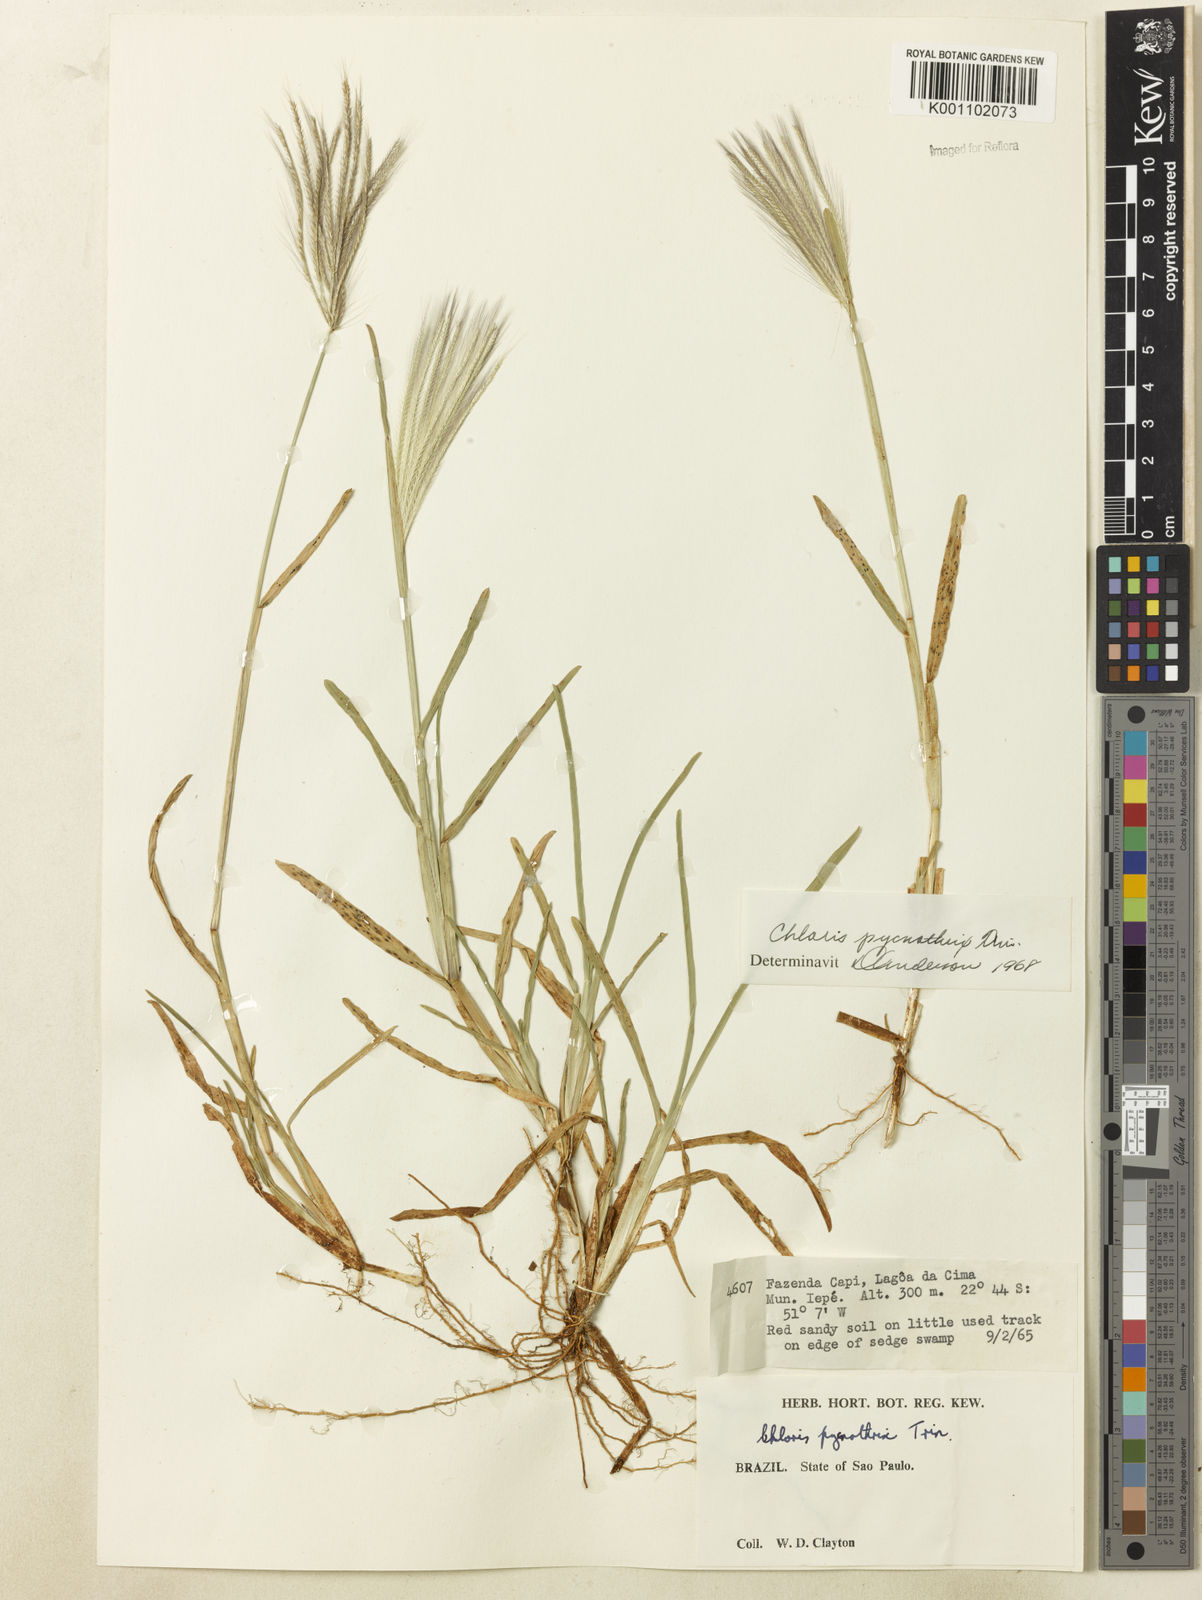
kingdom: Plantae
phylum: Tracheophyta
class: Liliopsida
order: Poales
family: Poaceae
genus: Chloris
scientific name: Chloris pycnothrix
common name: Spiderweb chloris
